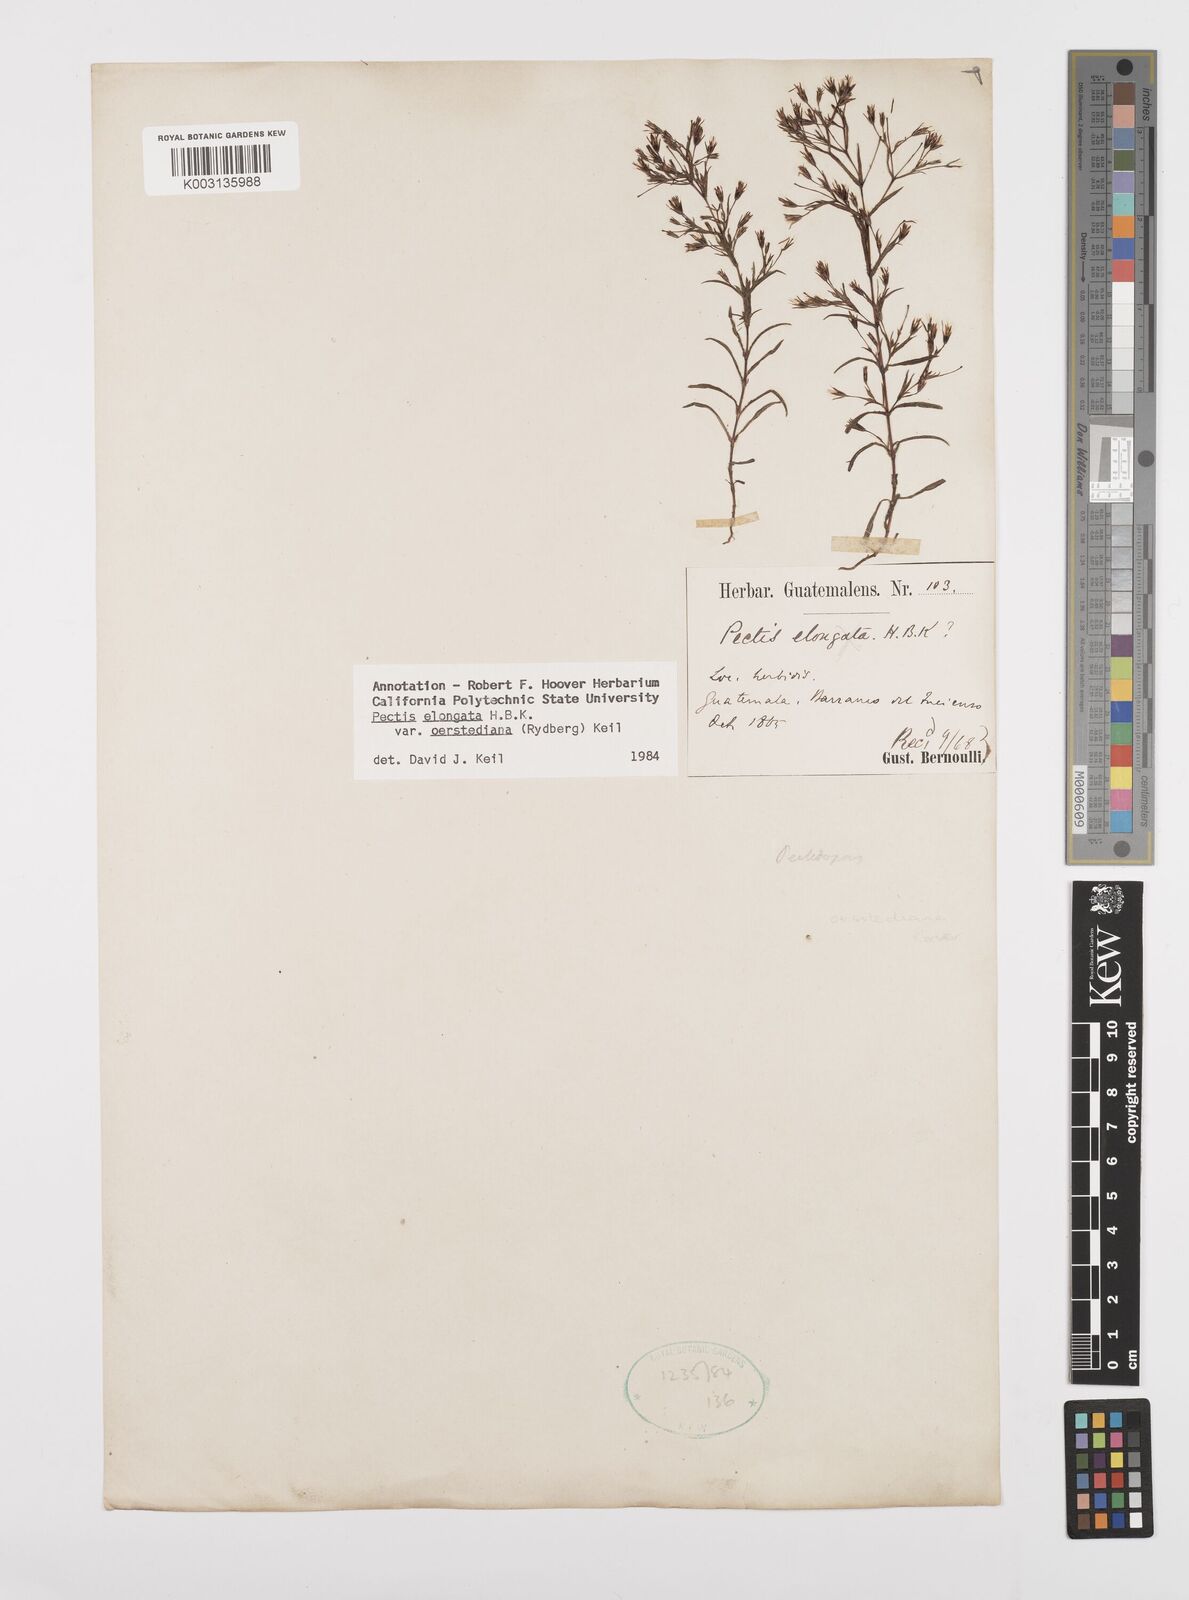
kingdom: Plantae
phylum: Tracheophyta
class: Magnoliopsida
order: Asterales
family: Asteraceae
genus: Pectis
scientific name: Pectis elongata
